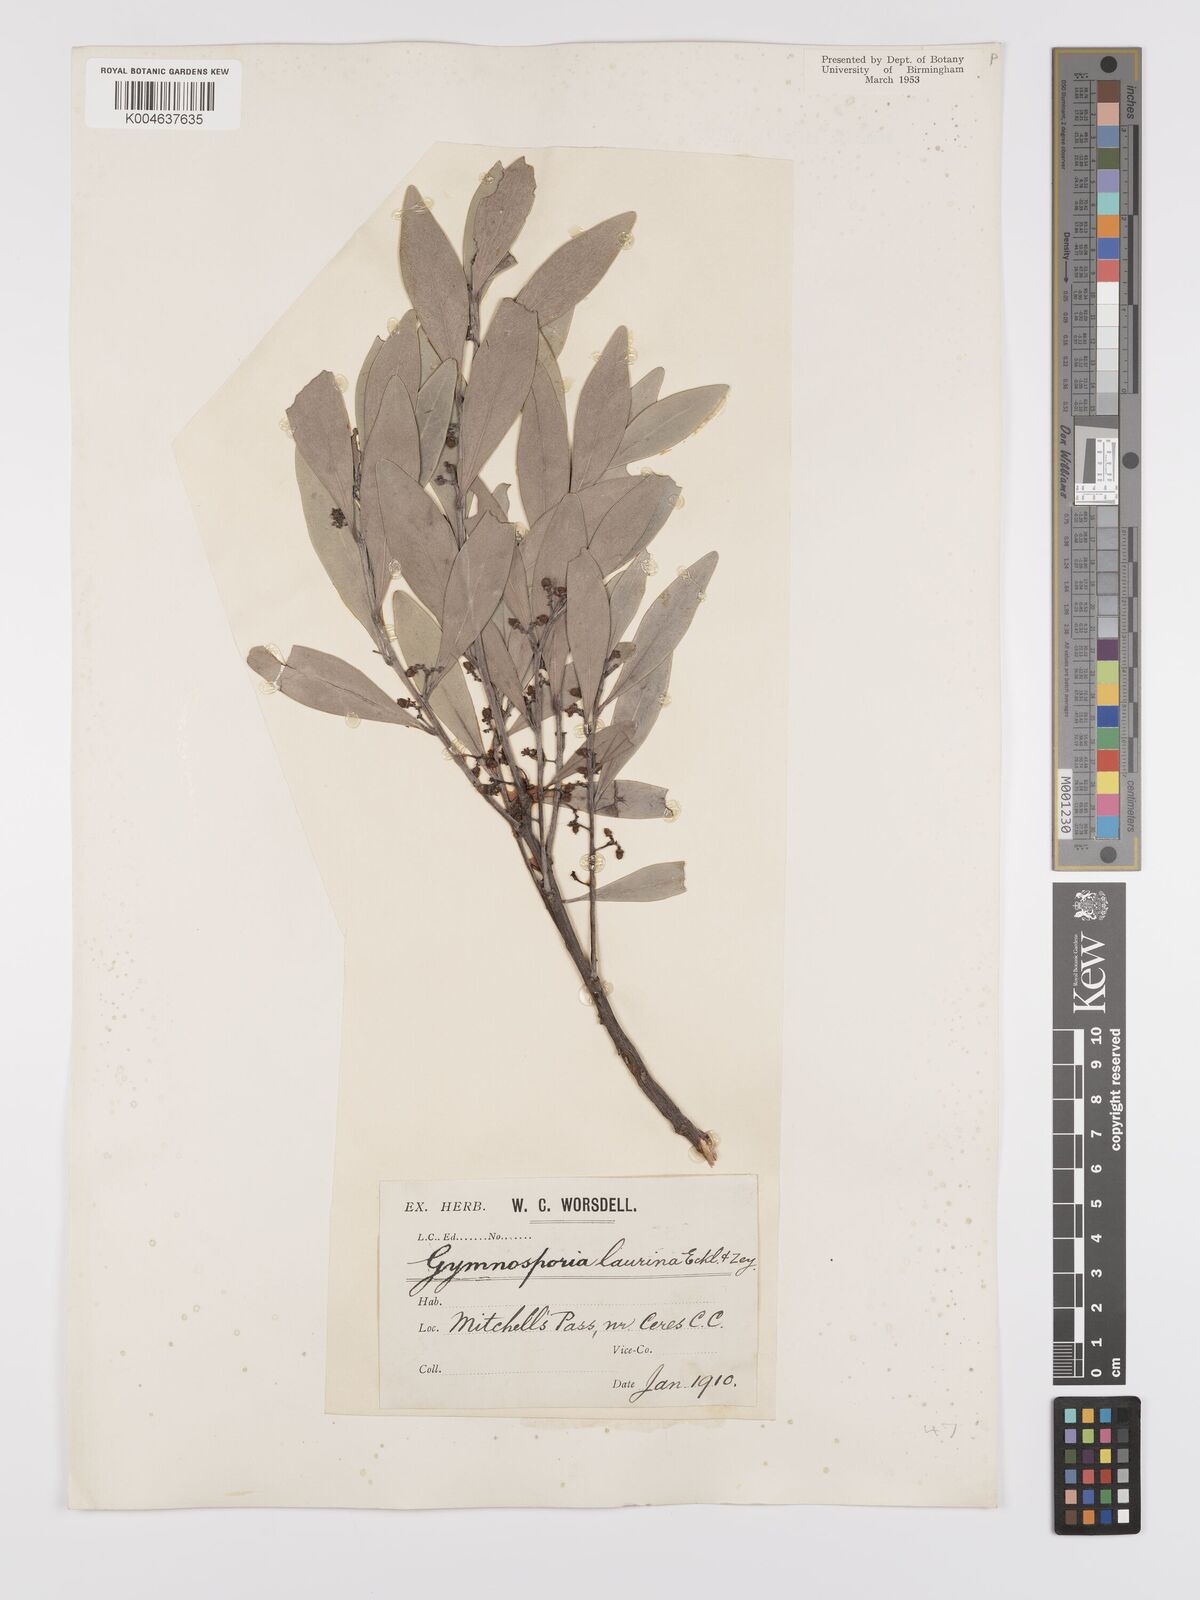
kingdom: Plantae
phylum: Tracheophyta
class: Magnoliopsida
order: Celastrales
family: Celastraceae
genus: Gymnosporia
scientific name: Gymnosporia laurina
